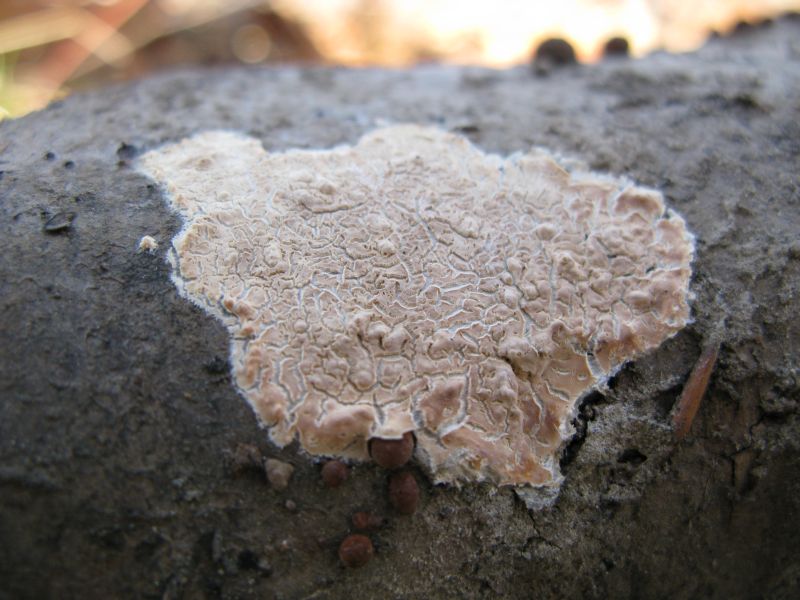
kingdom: Fungi
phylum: Basidiomycota
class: Agaricomycetes
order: Agaricales
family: Physalacriaceae
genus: Cylindrobasidium
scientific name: Cylindrobasidium evolvens
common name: sprækkehinde
